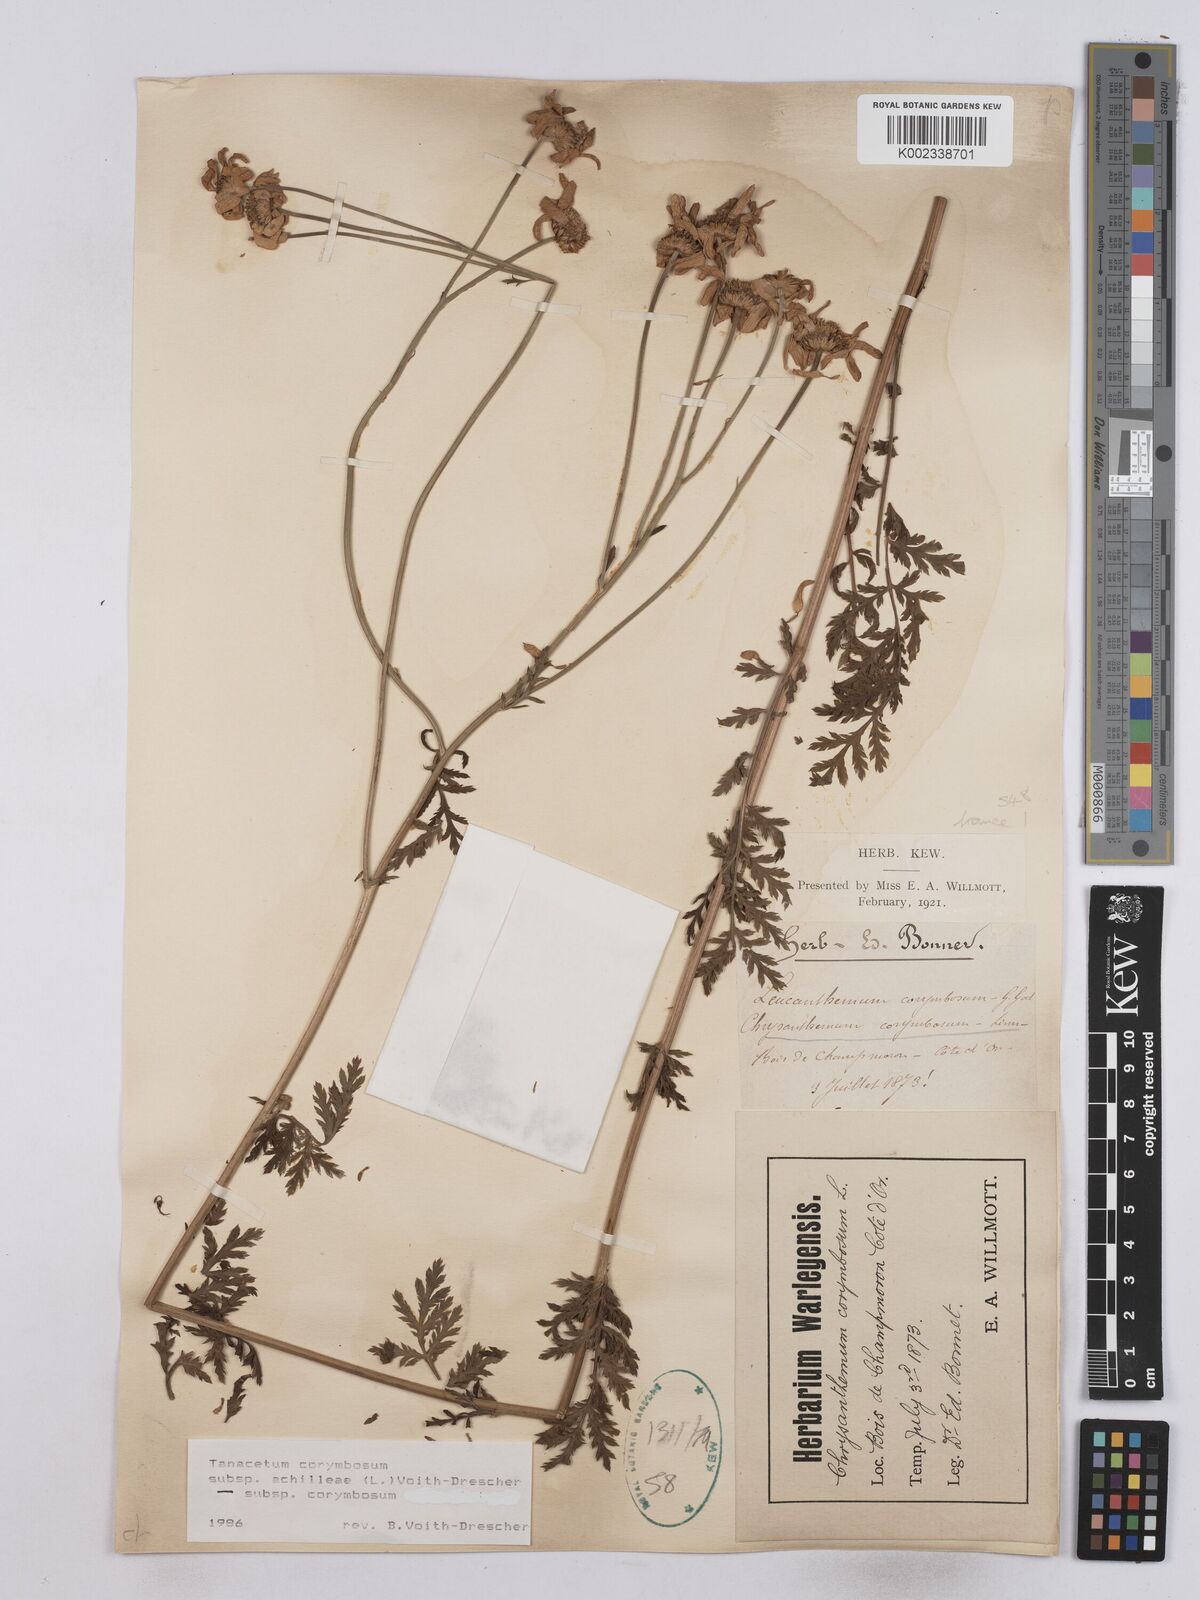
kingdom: Plantae
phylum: Tracheophyta
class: Magnoliopsida
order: Asterales
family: Asteraceae
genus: Tanacetum
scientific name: Tanacetum corymbosum
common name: Scentless feverfew
